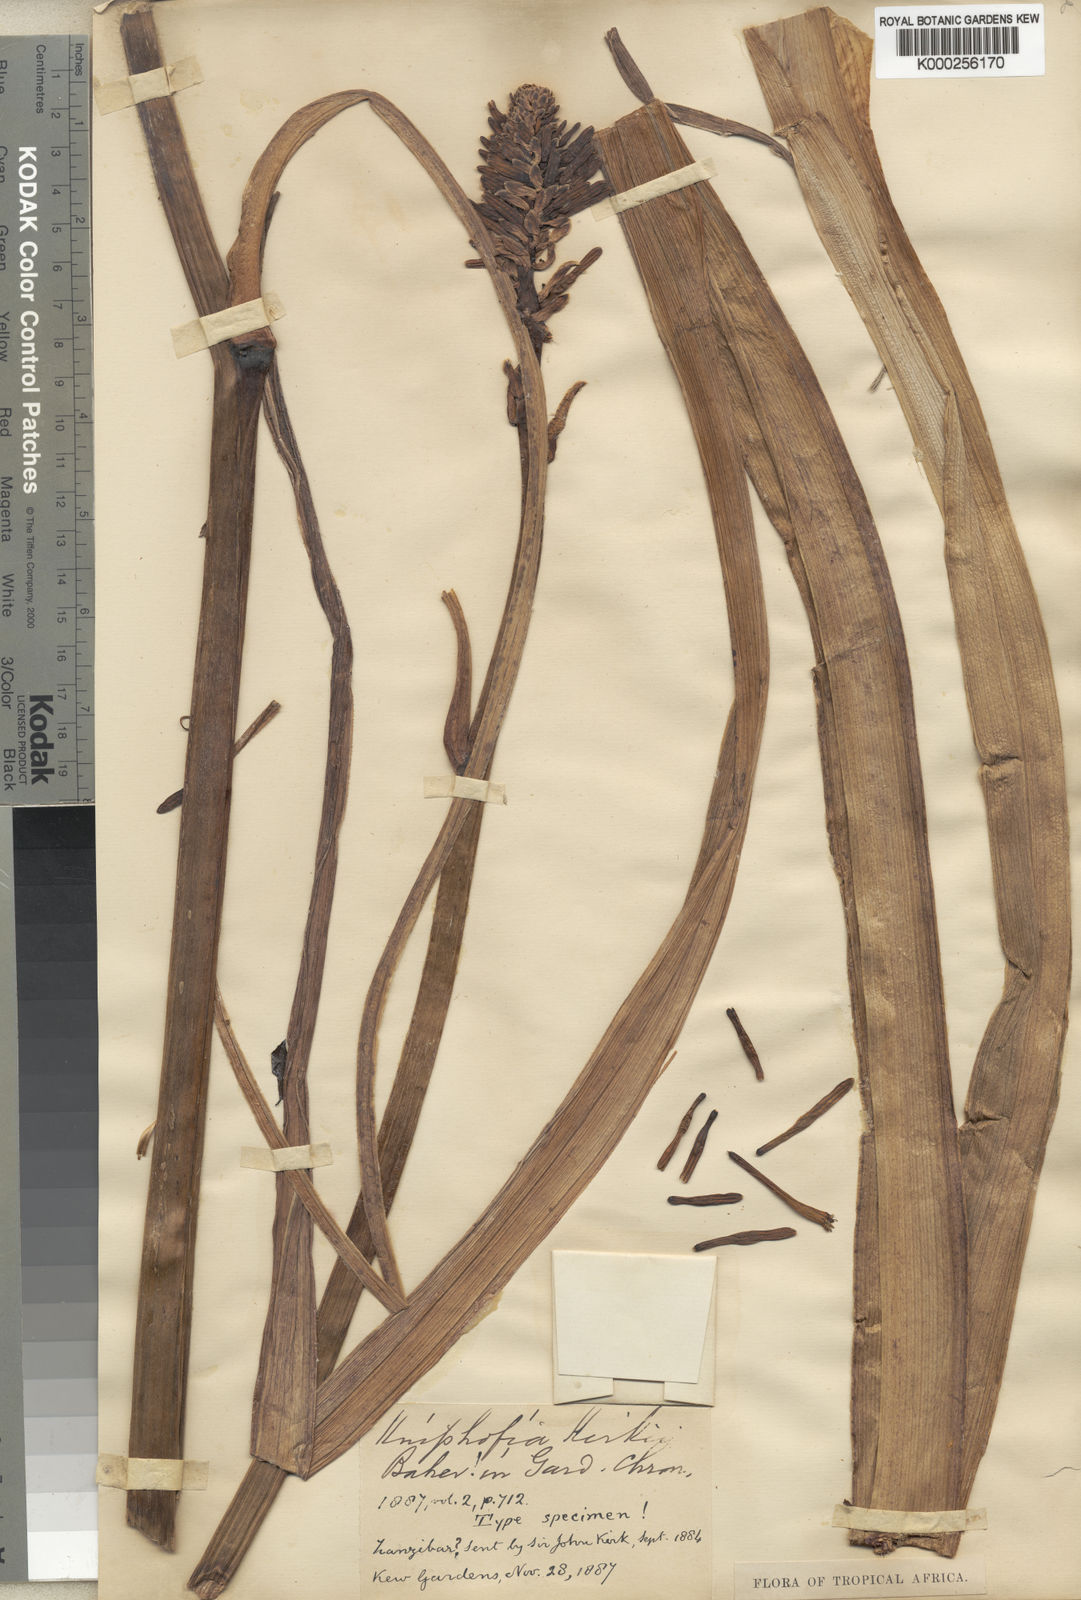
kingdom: Plantae
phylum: Tracheophyta
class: Liliopsida
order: Asparagales
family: Asphodelaceae
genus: Kniphofia
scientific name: Kniphofia kirkii
